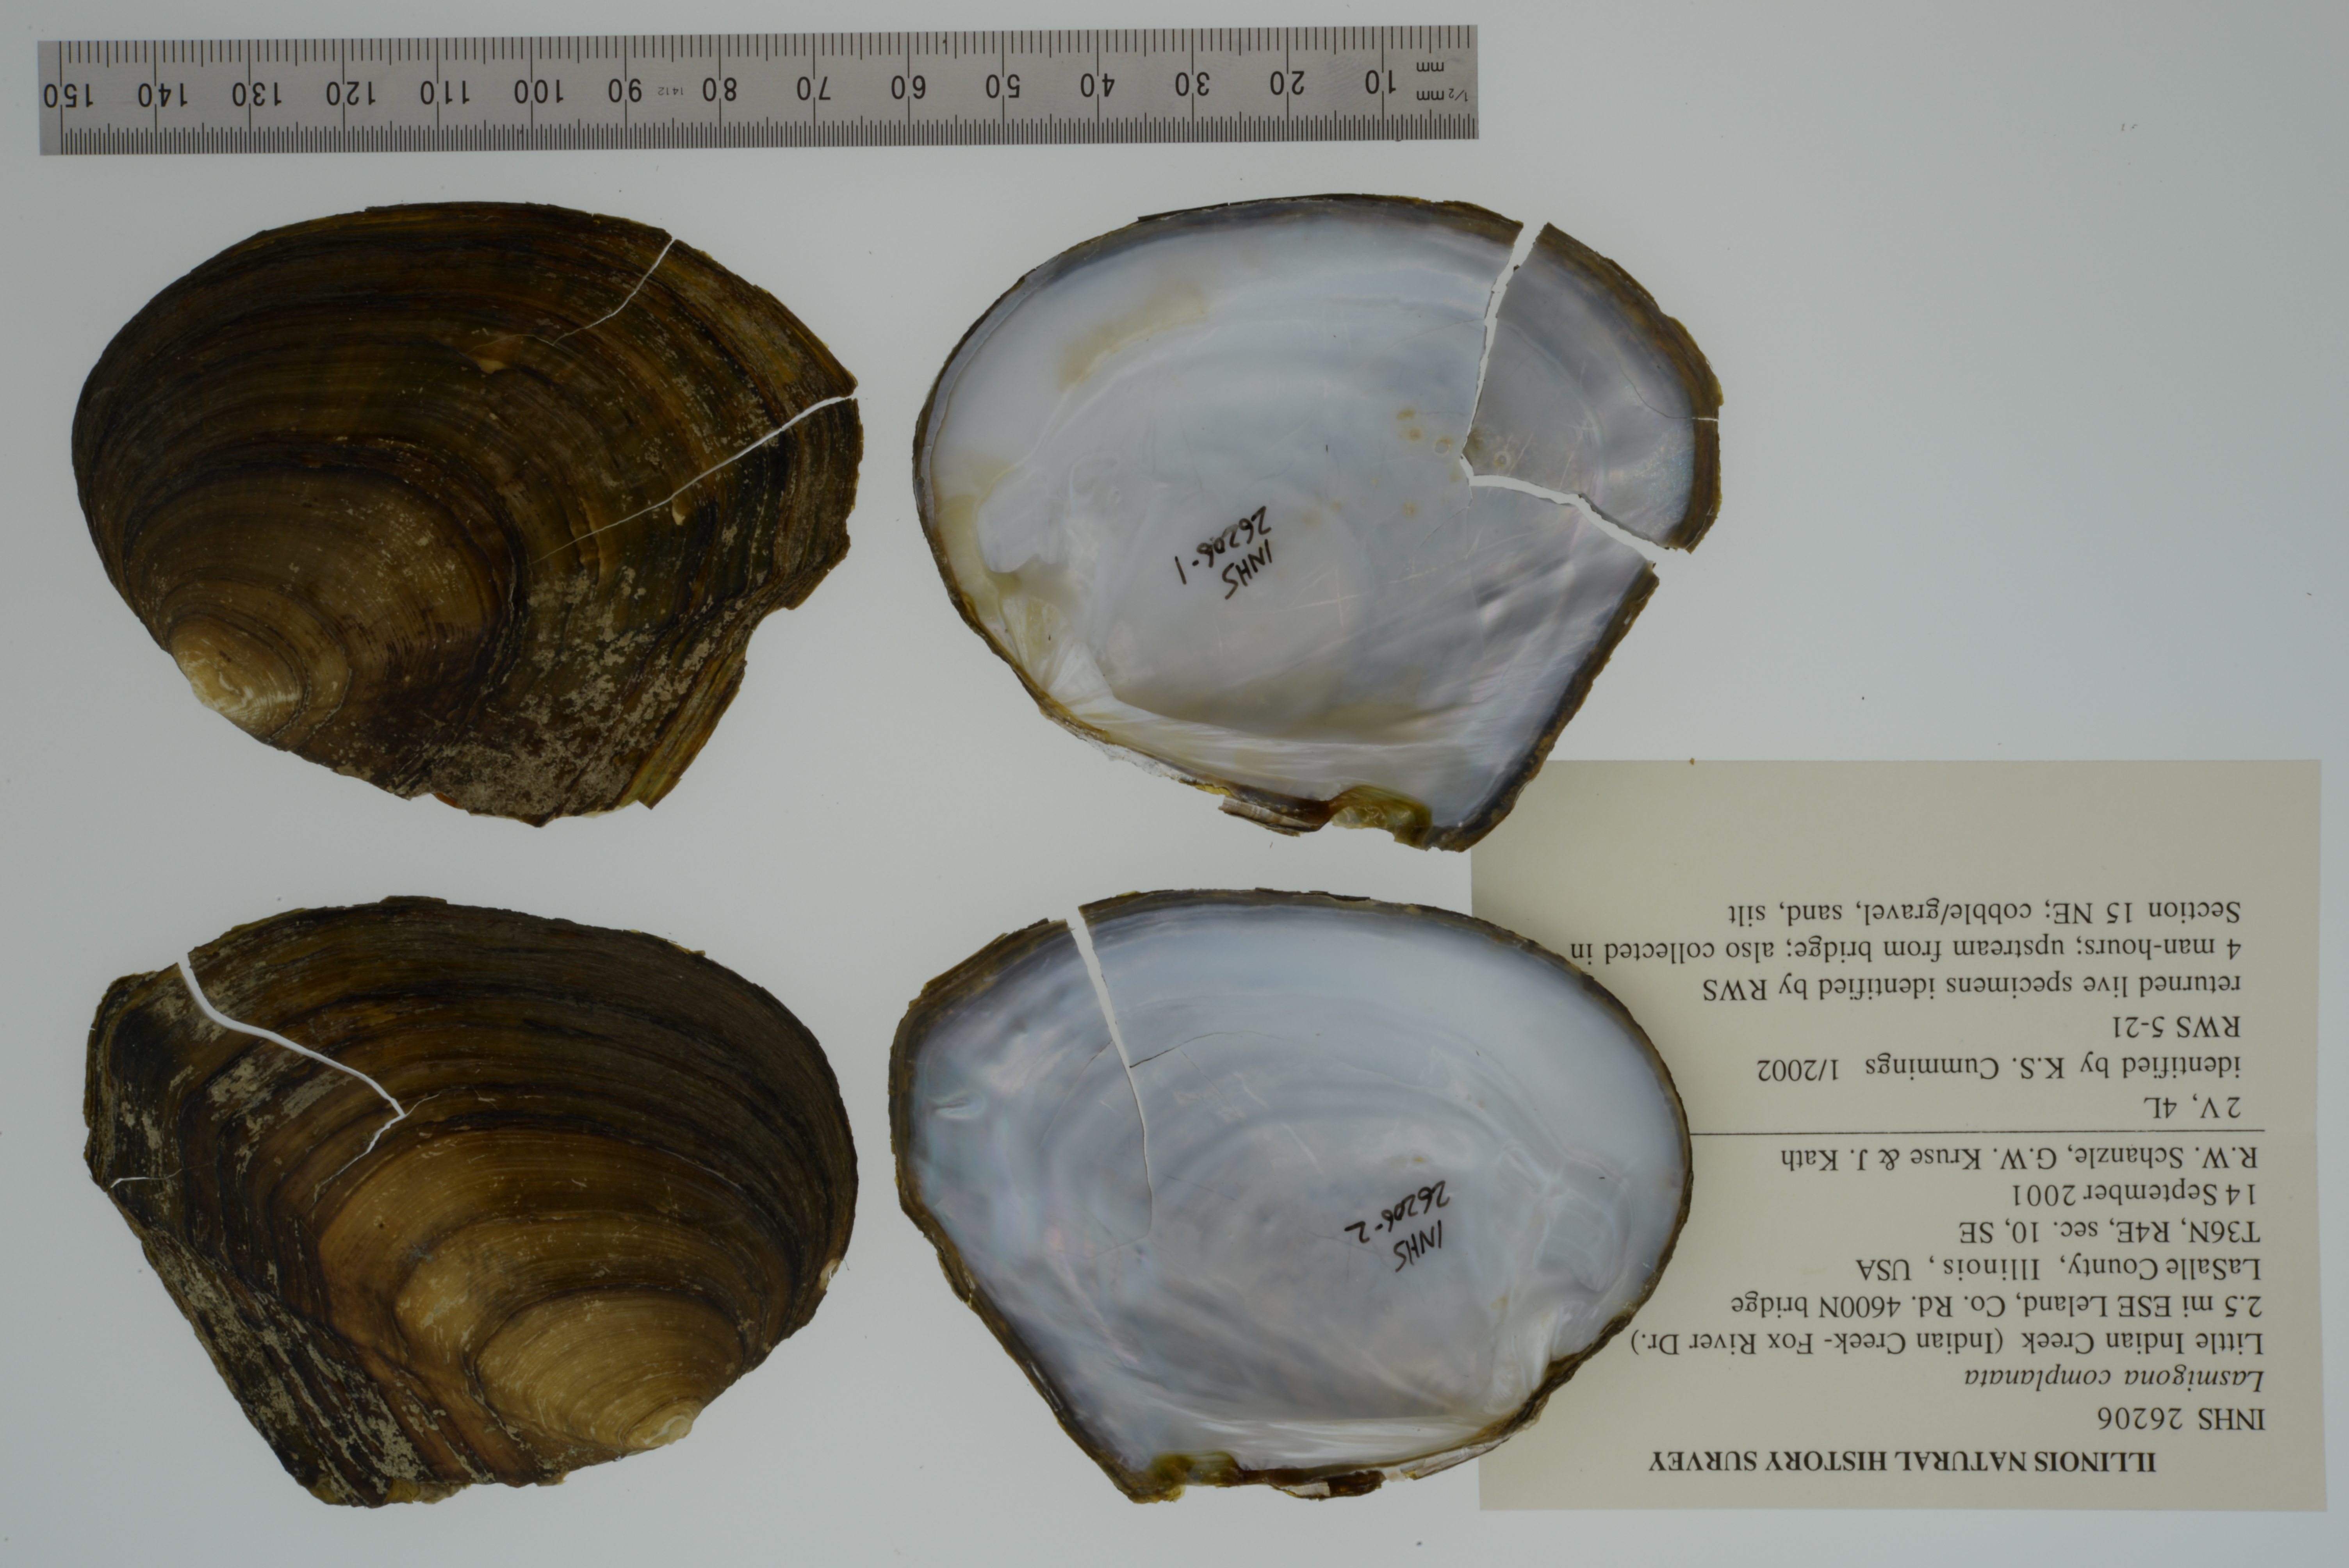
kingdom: Animalia
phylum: Mollusca
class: Bivalvia
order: Unionida
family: Unionidae
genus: Lasmigona
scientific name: Lasmigona complanata
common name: White heelsplitter
